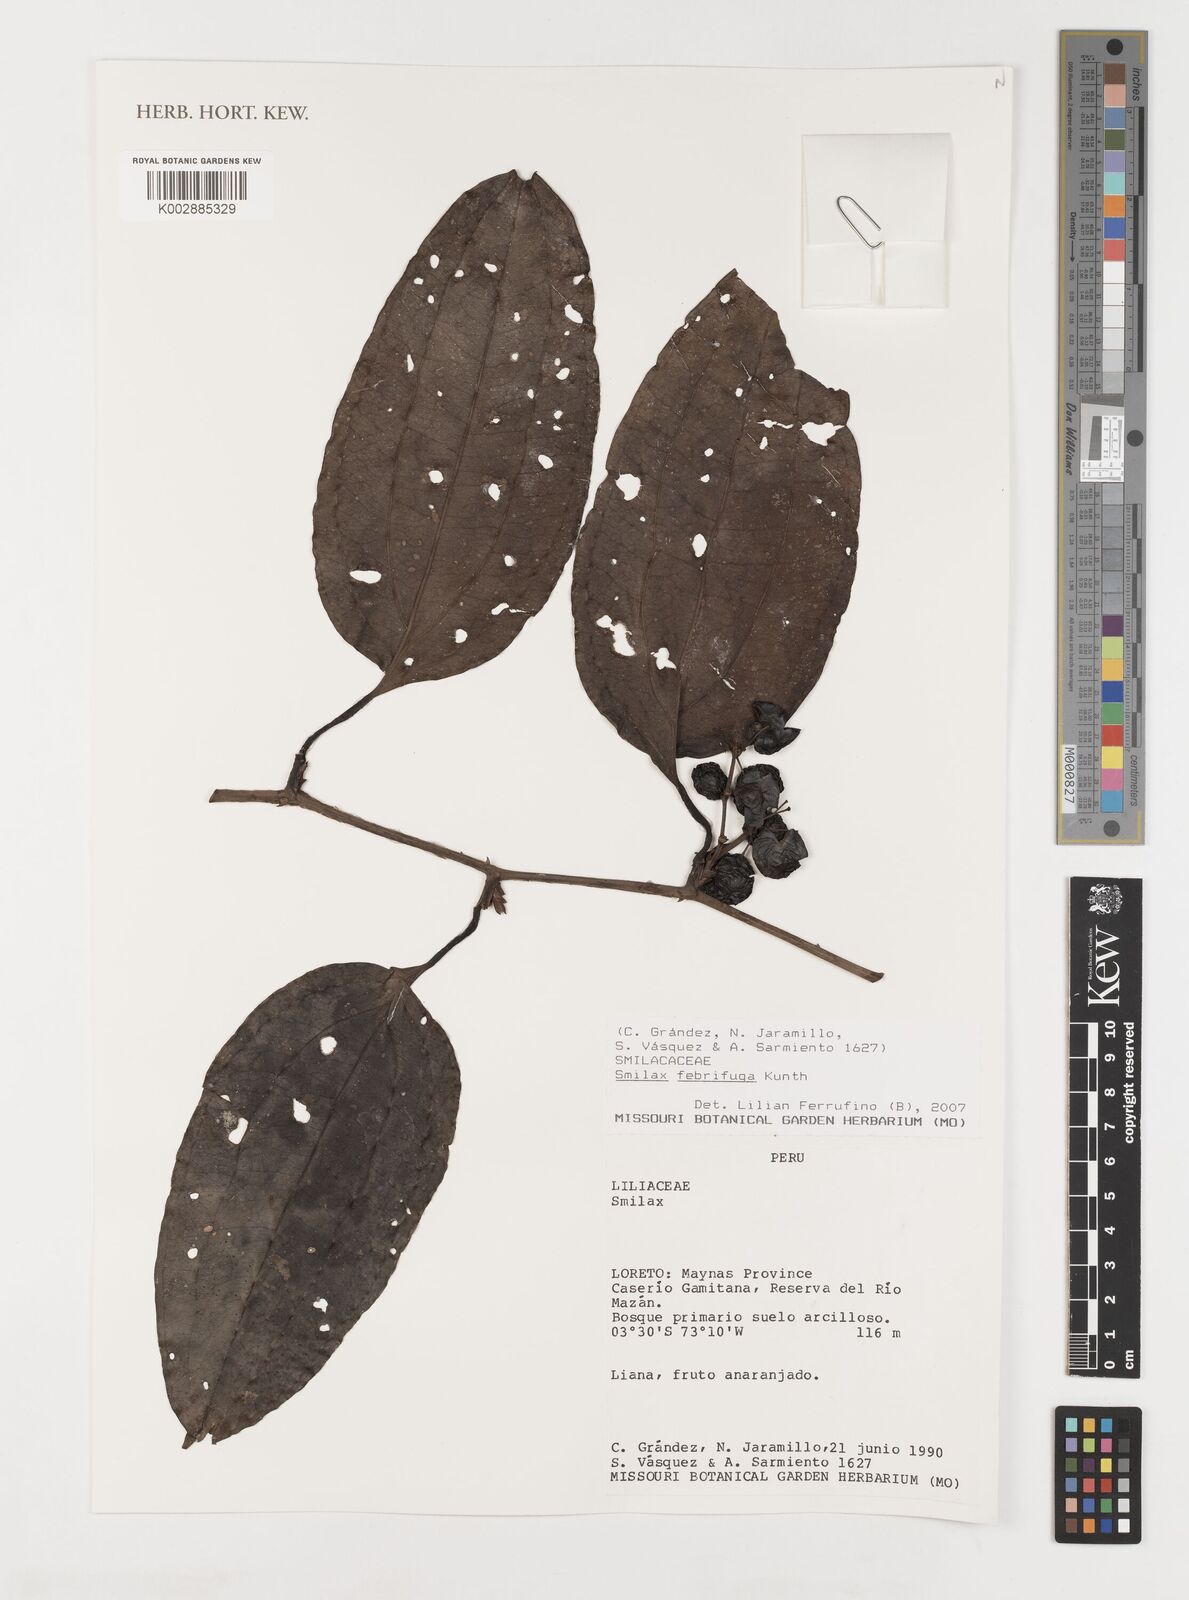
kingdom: Plantae
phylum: Tracheophyta
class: Liliopsida
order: Liliales
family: Smilacaceae
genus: Smilax
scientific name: Smilax purhampuy
